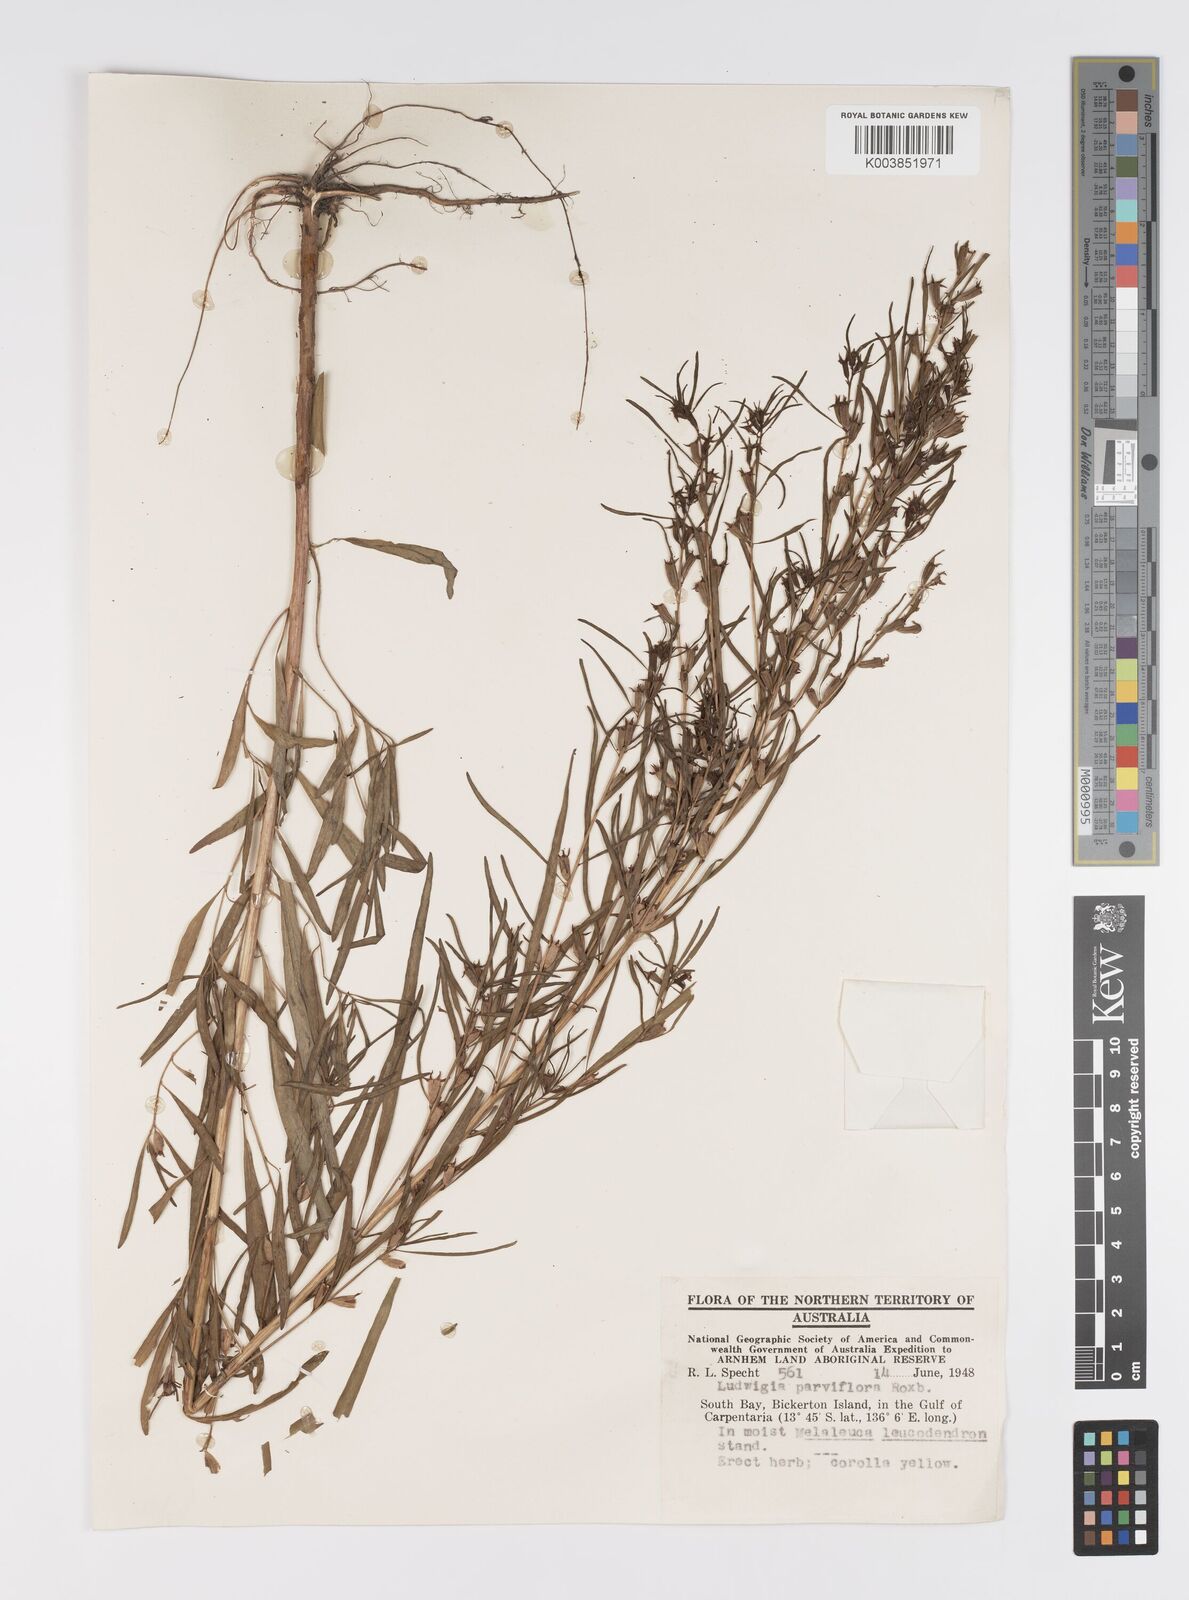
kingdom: Plantae
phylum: Tracheophyta
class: Magnoliopsida
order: Myrtales
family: Onagraceae
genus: Ludwigia
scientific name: Ludwigia perennis
